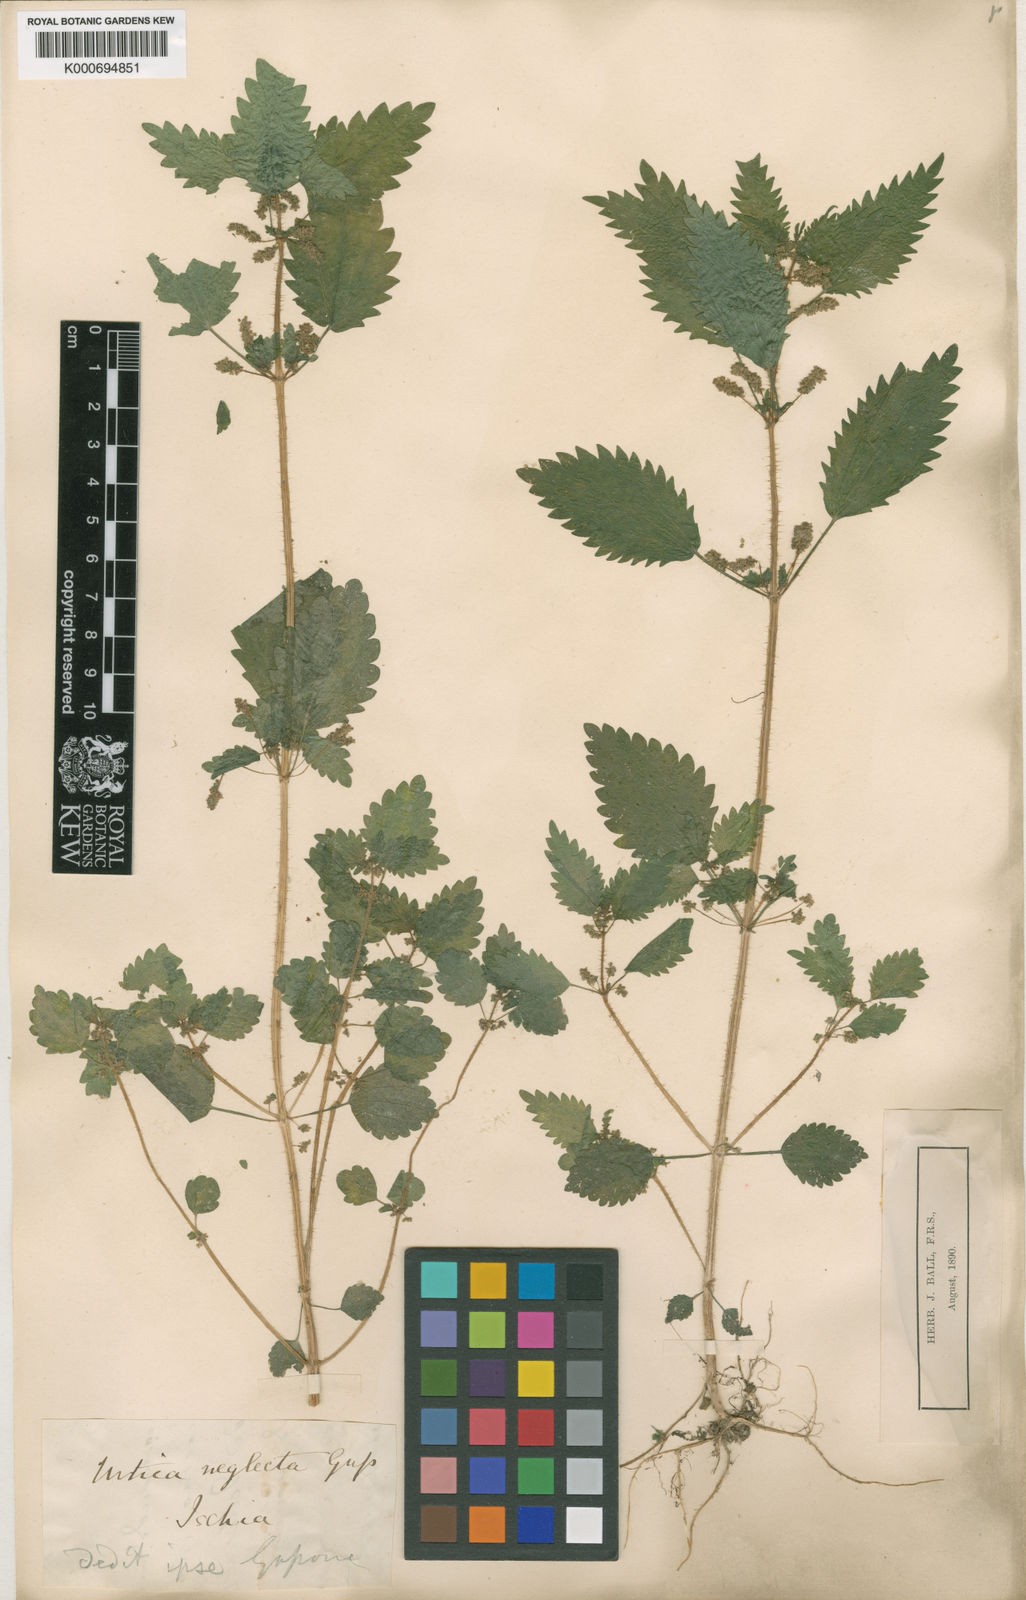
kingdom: Plantae
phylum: Tracheophyta
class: Magnoliopsida
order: Rosales
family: Urticaceae
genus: Urtica
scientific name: Urtica
